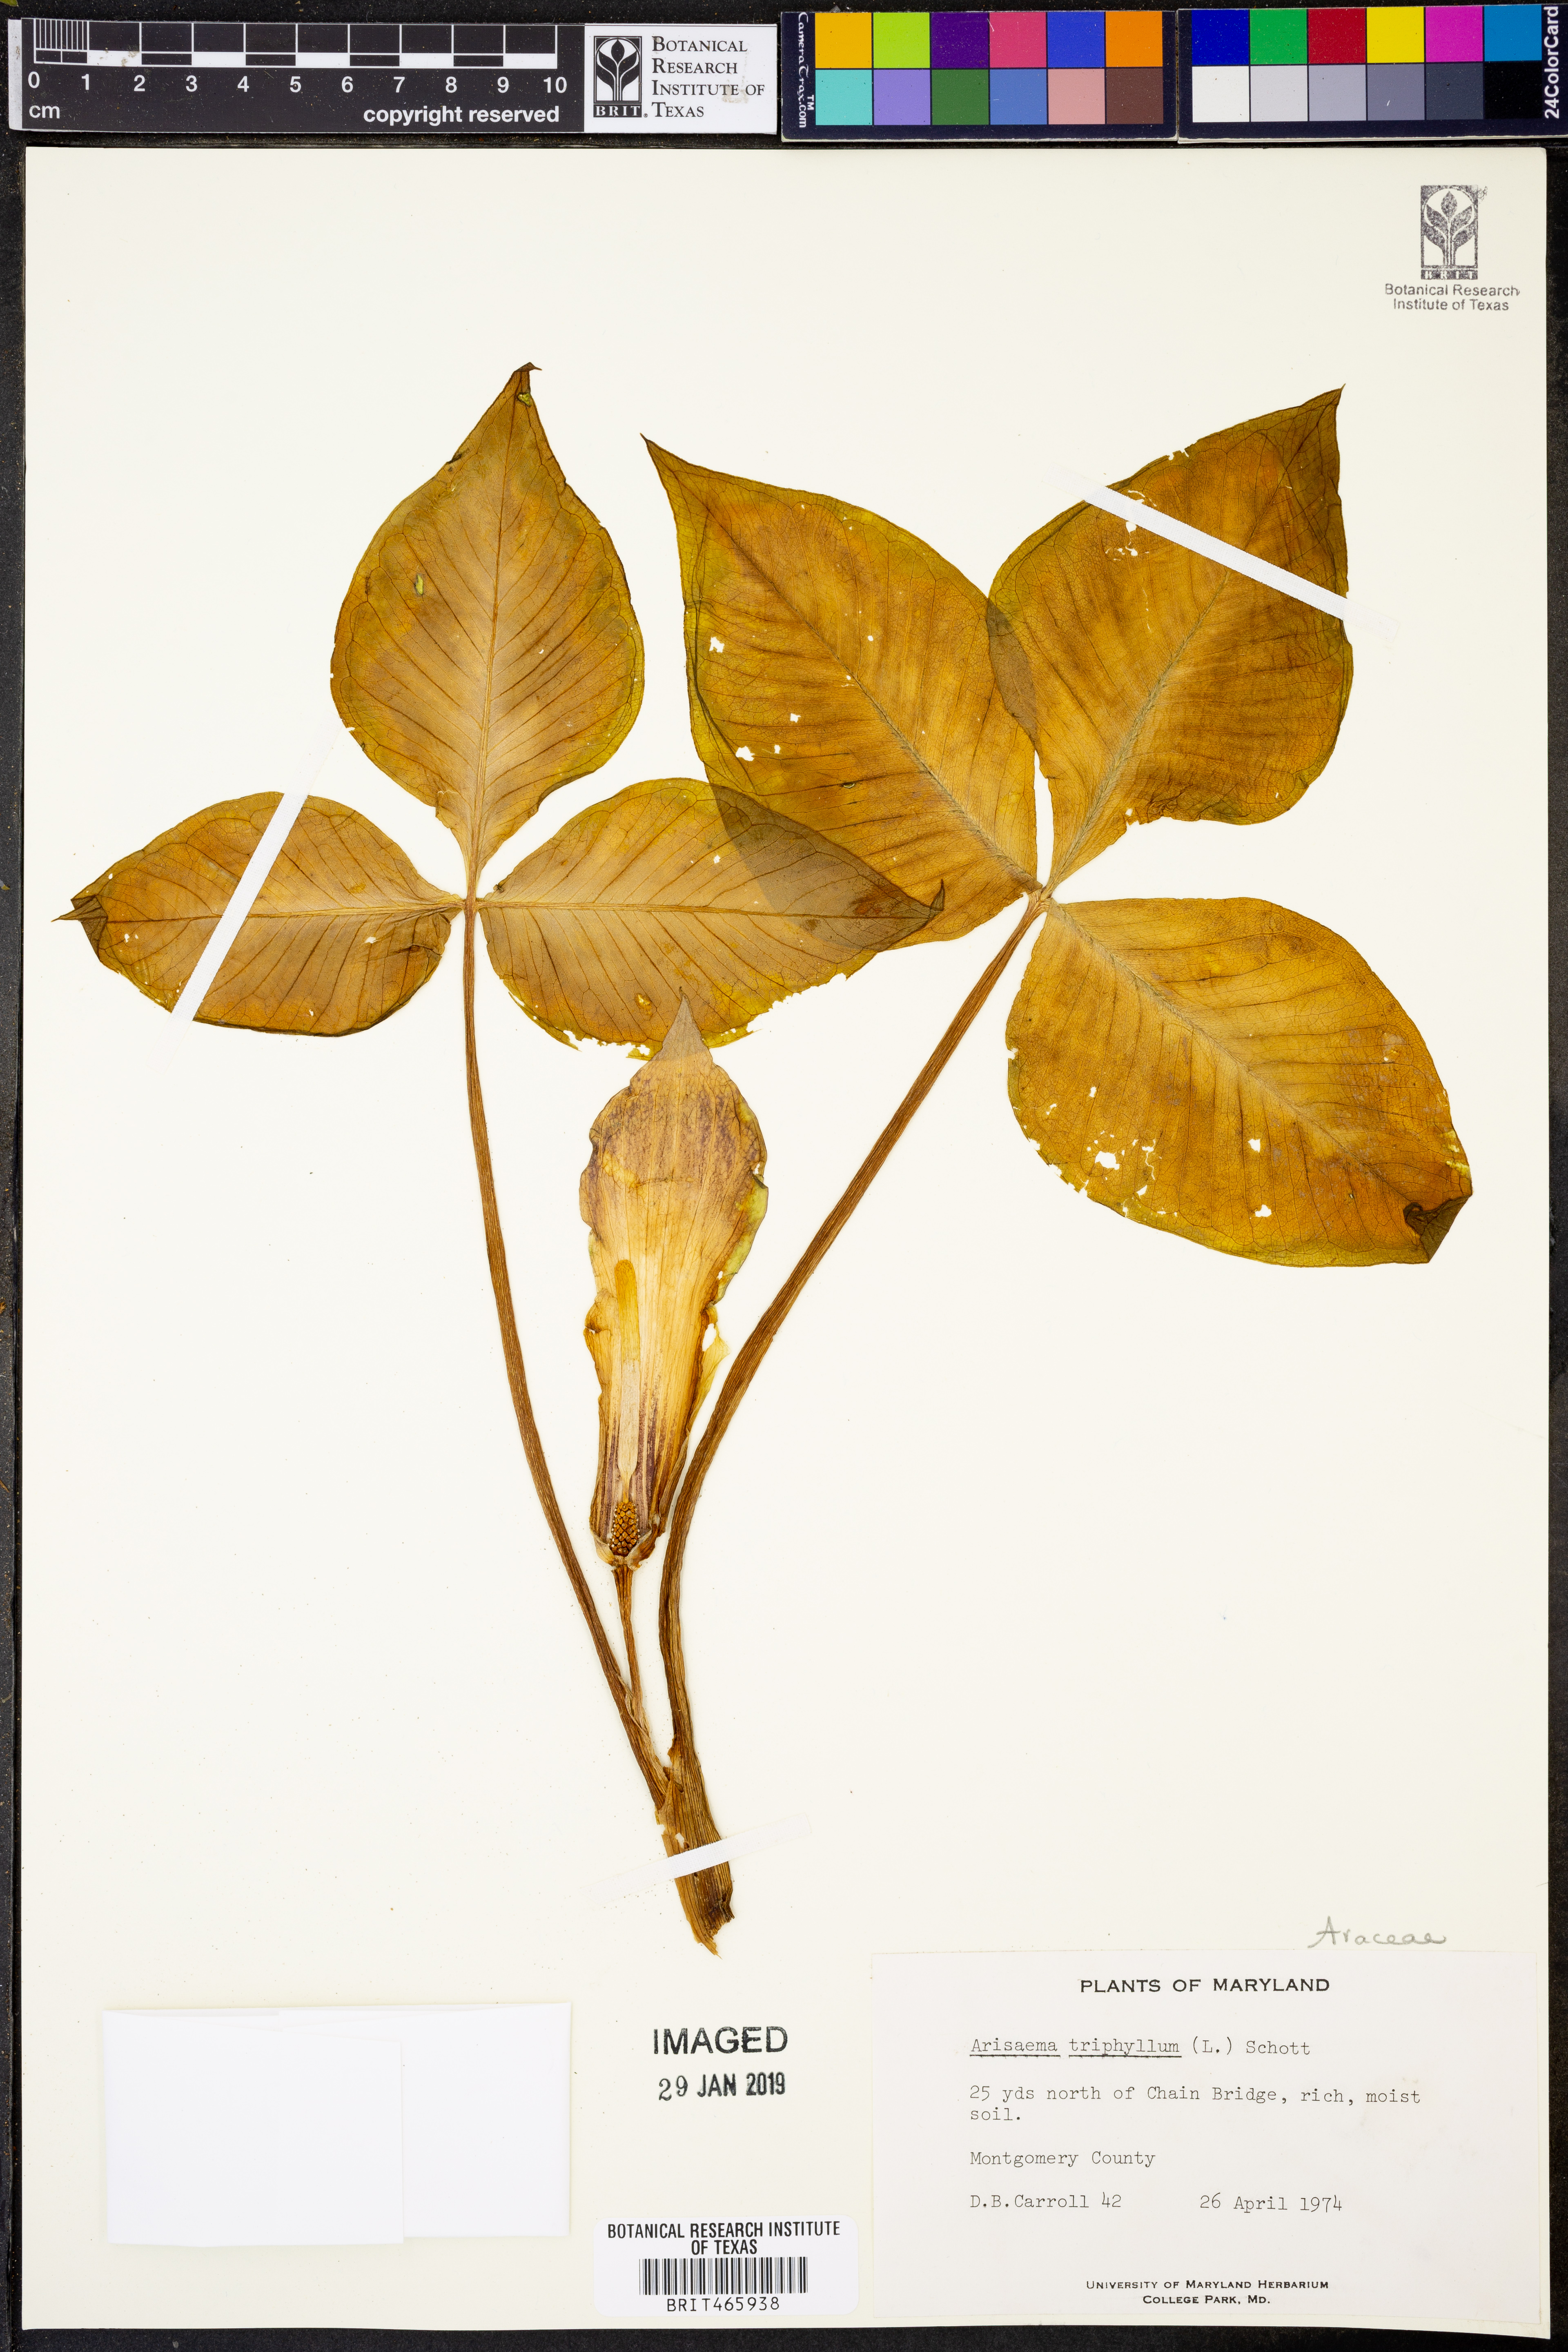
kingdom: Plantae
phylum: Tracheophyta
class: Liliopsida
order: Alismatales
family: Araceae
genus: Arisaema
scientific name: Arisaema triphyllum
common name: Jack-in-the-pulpit
